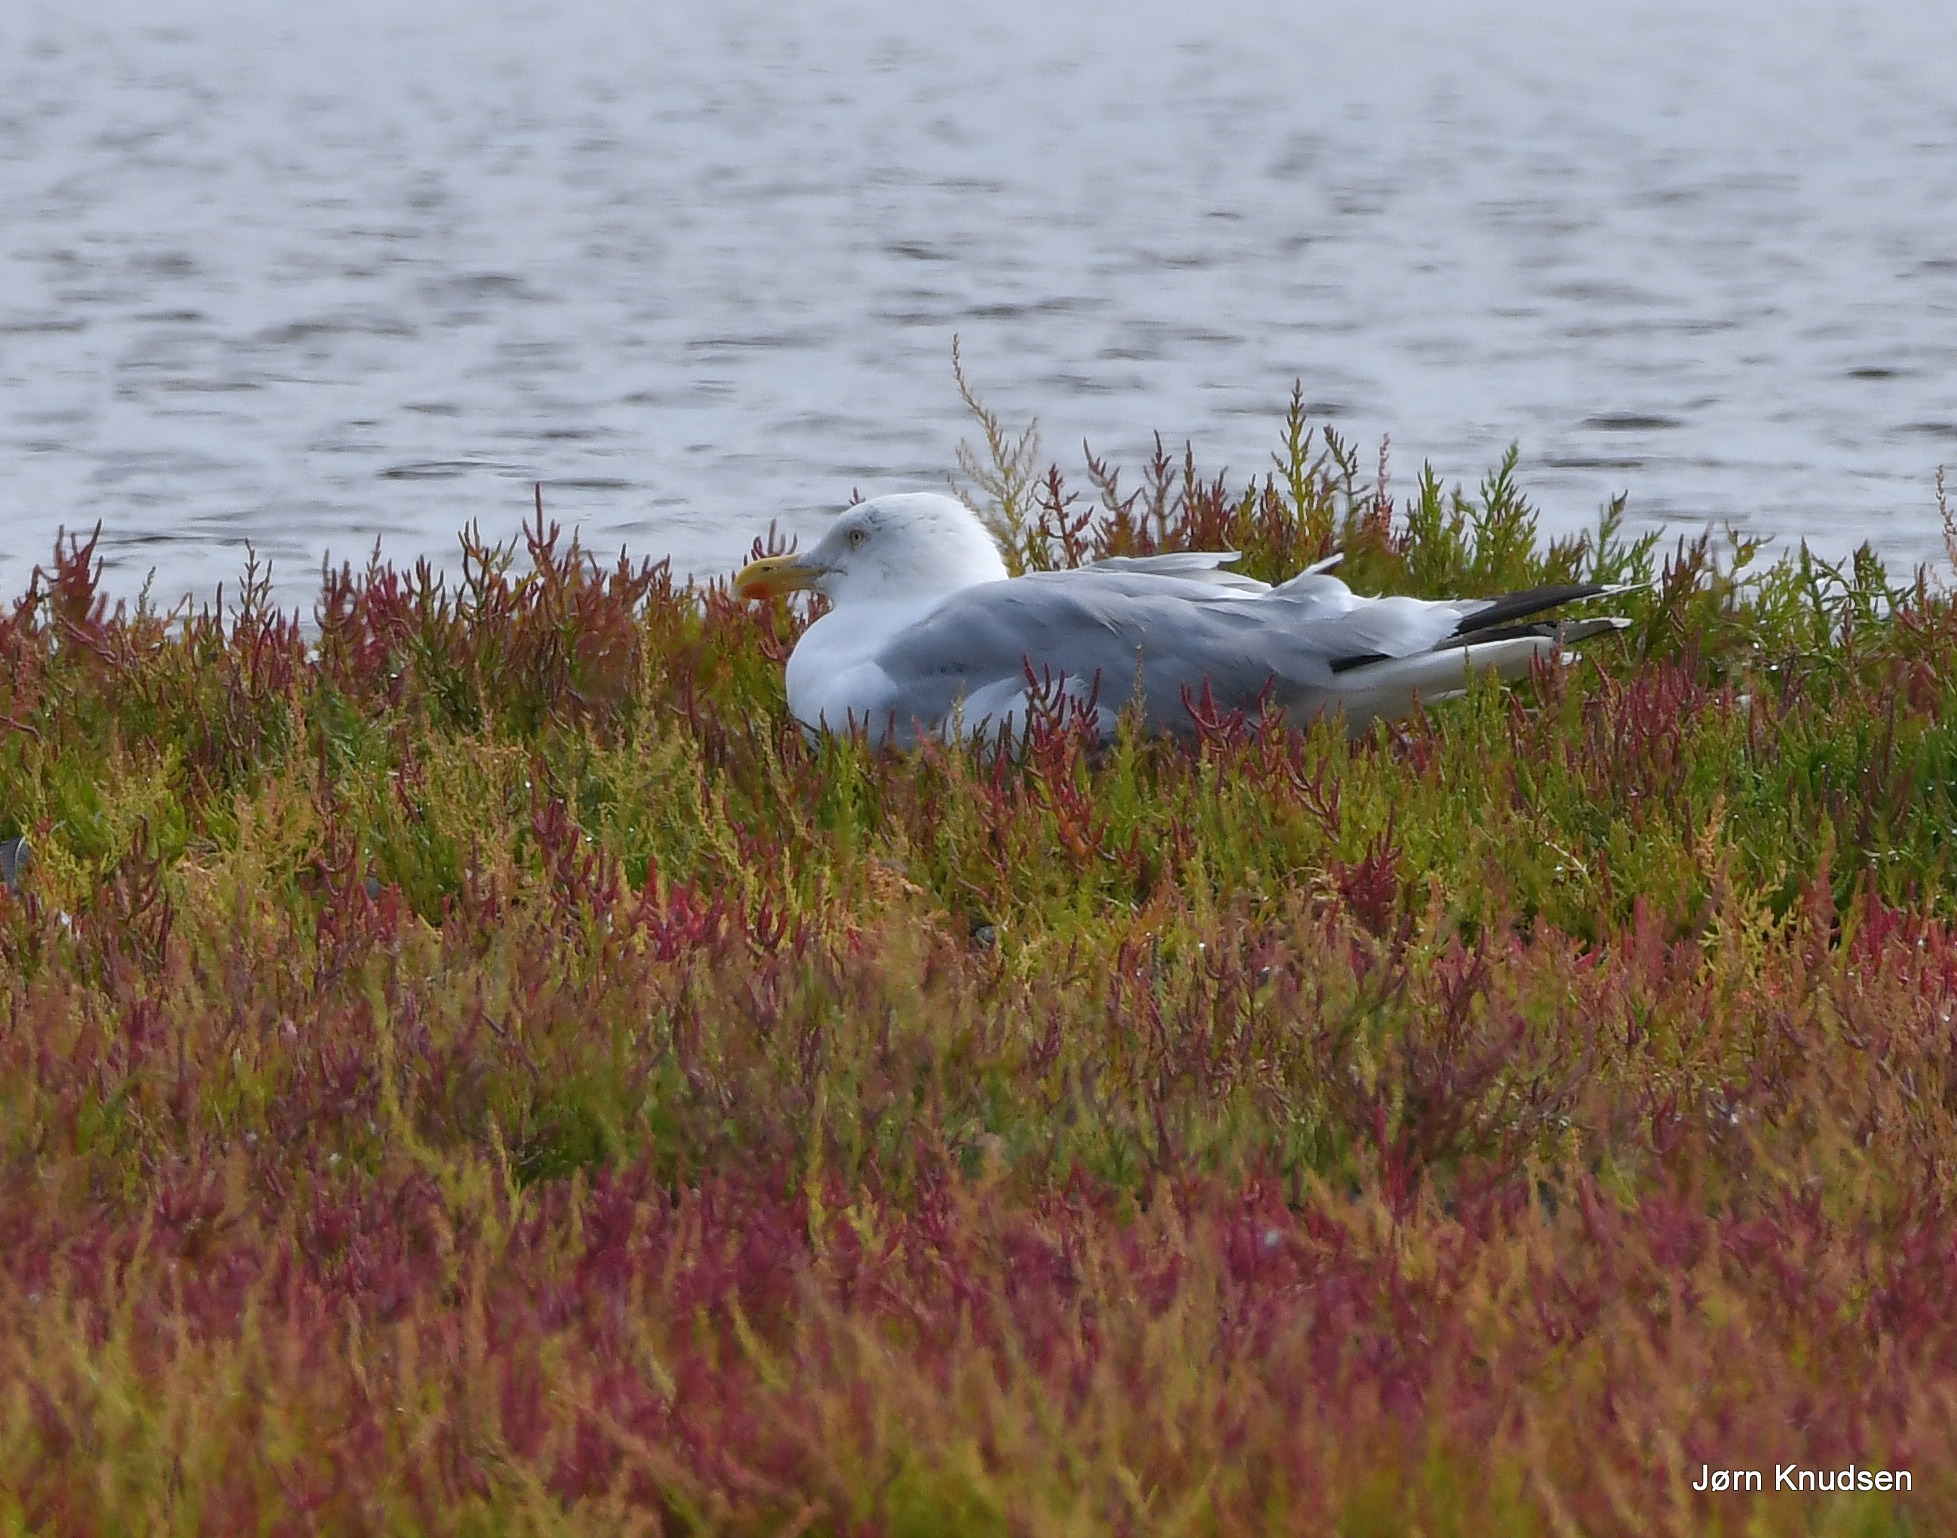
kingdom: Animalia
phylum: Chordata
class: Aves
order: Charadriiformes
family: Laridae
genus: Larus
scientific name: Larus argentatus
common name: Sølvmåge
